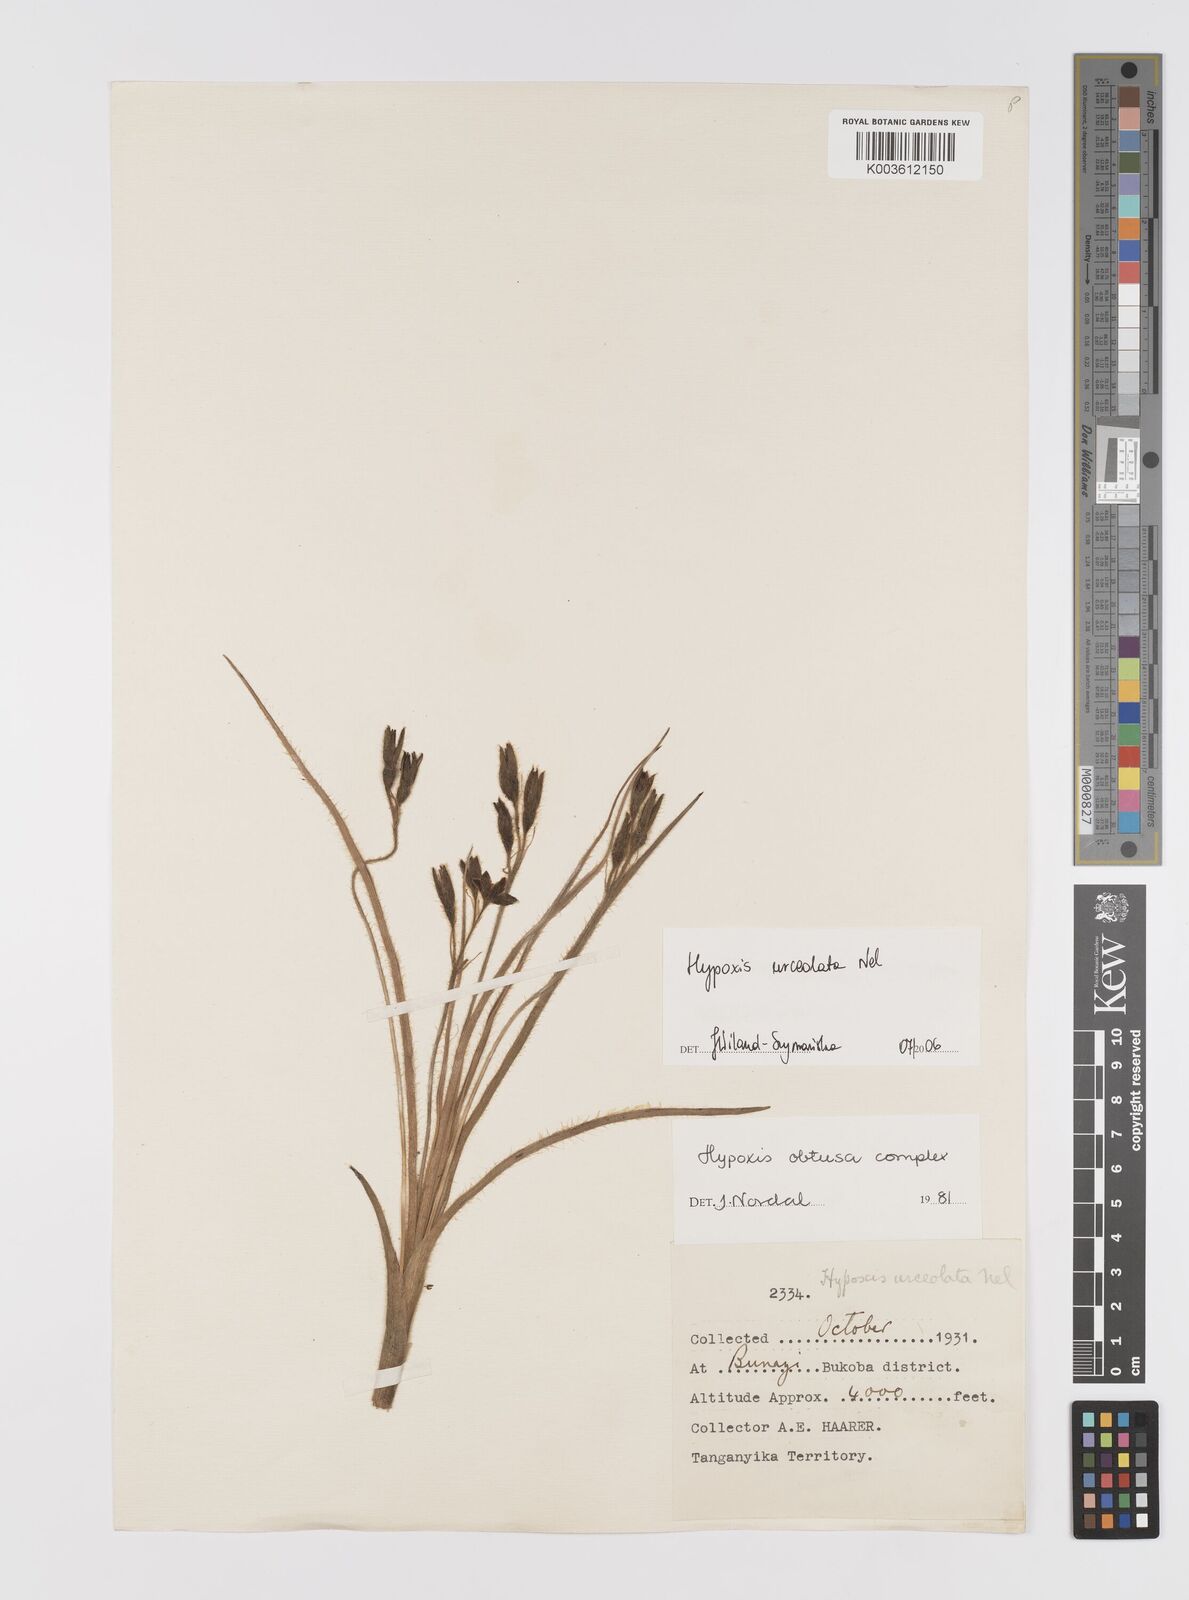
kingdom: Plantae
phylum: Tracheophyta
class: Liliopsida
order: Asparagales
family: Hypoxidaceae
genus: Hypoxis
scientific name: Hypoxis urceolata
